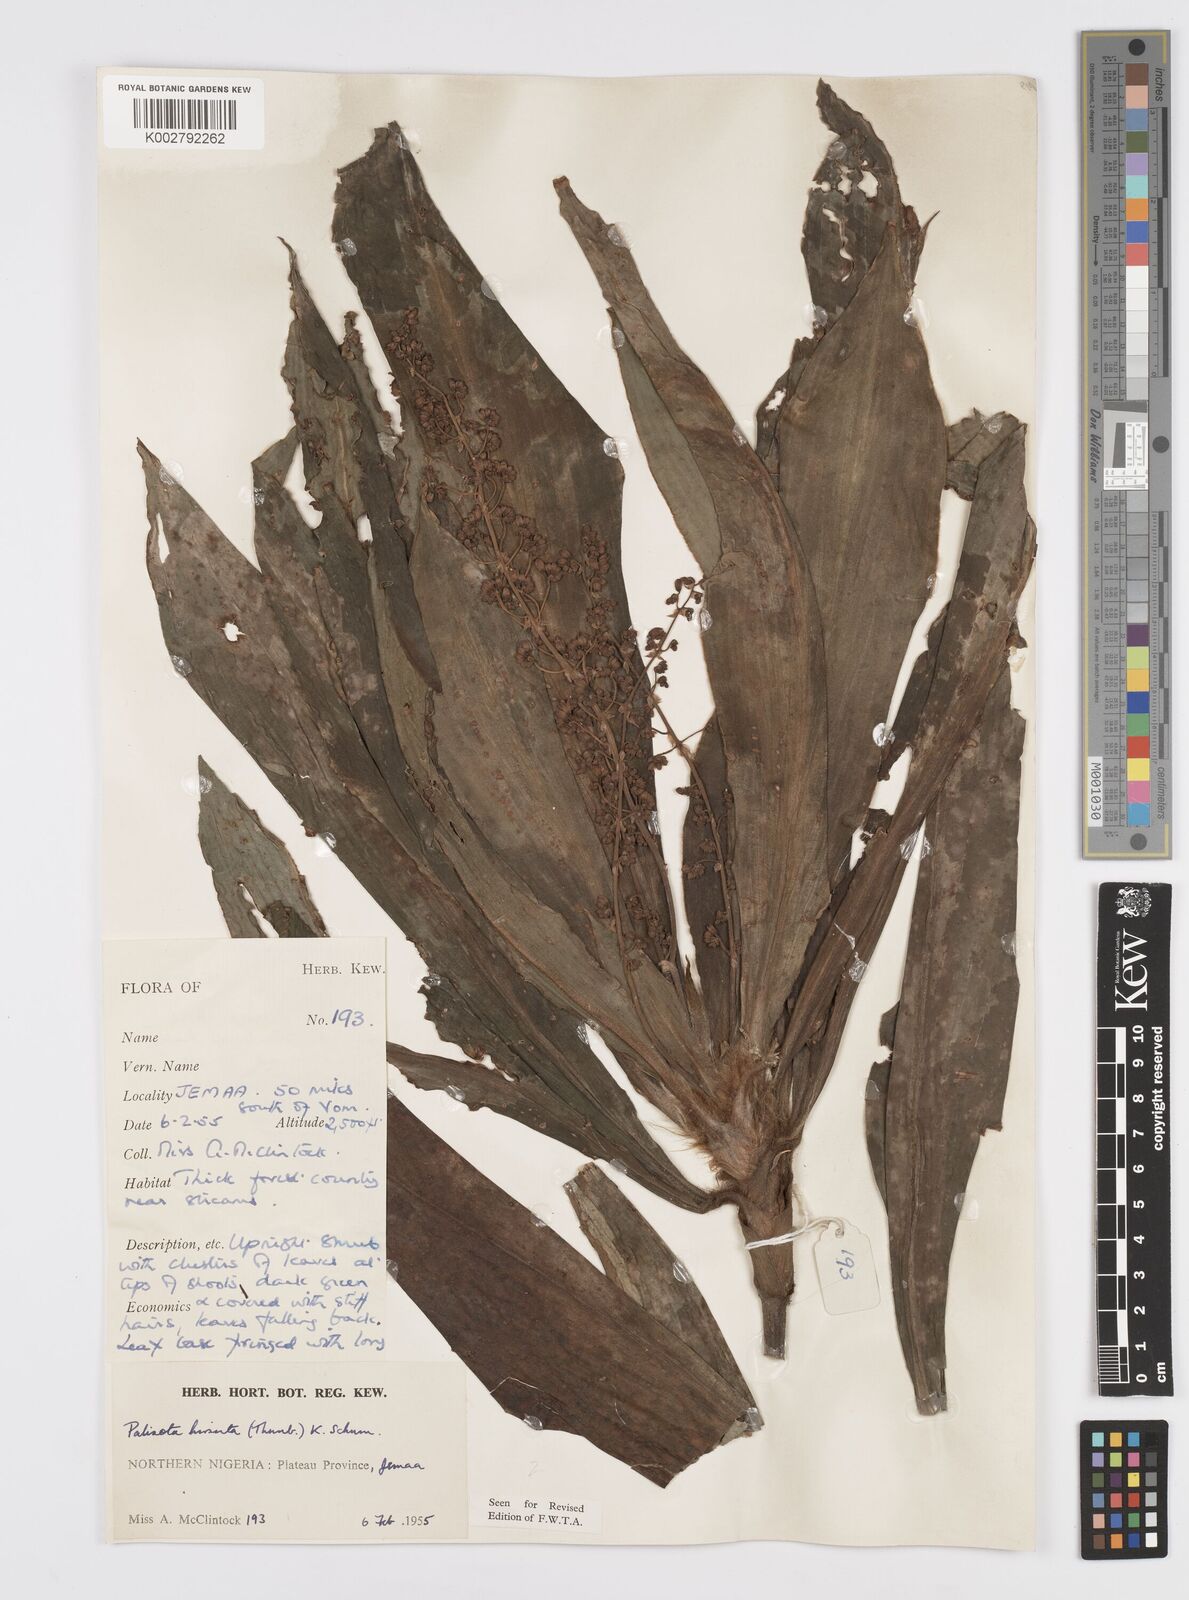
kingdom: Plantae
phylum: Tracheophyta
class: Liliopsida
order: Commelinales
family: Commelinaceae
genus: Palisota
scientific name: Palisota hirsuta
